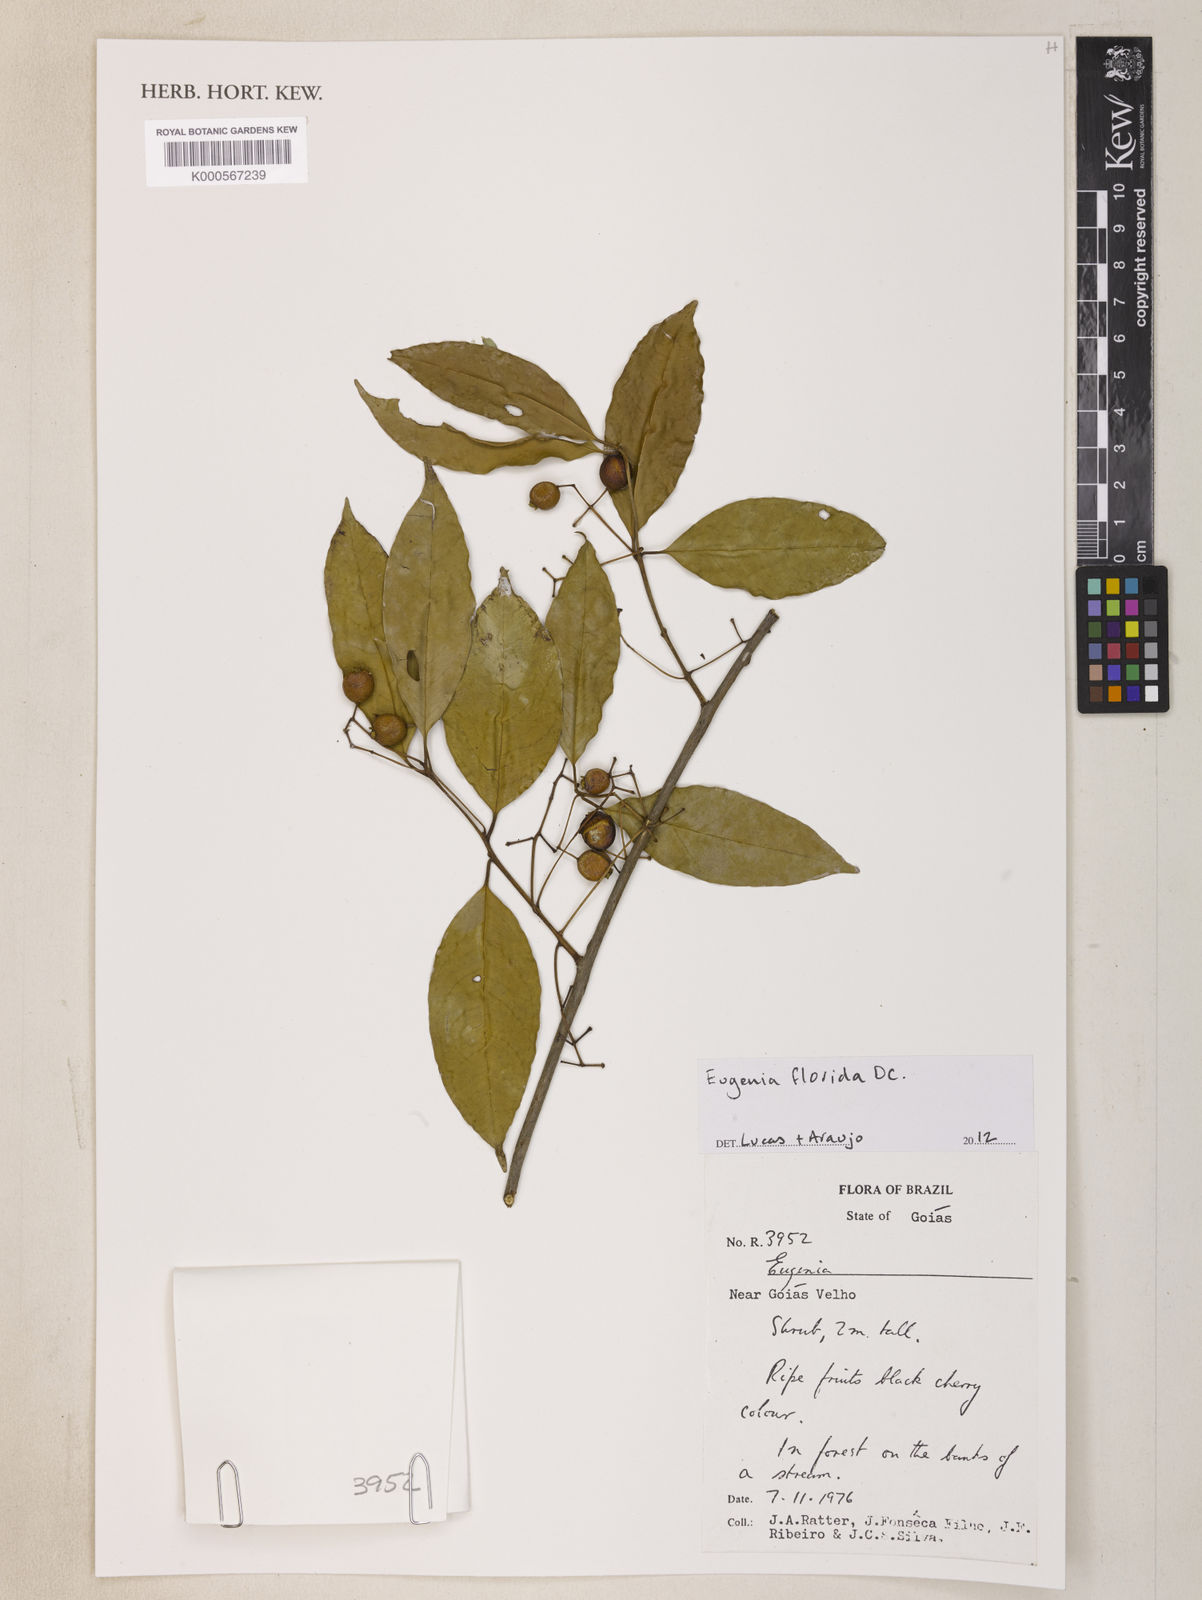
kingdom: Plantae
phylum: Tracheophyta
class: Magnoliopsida
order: Myrtales
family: Myrtaceae
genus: Eugenia
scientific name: Eugenia florida
